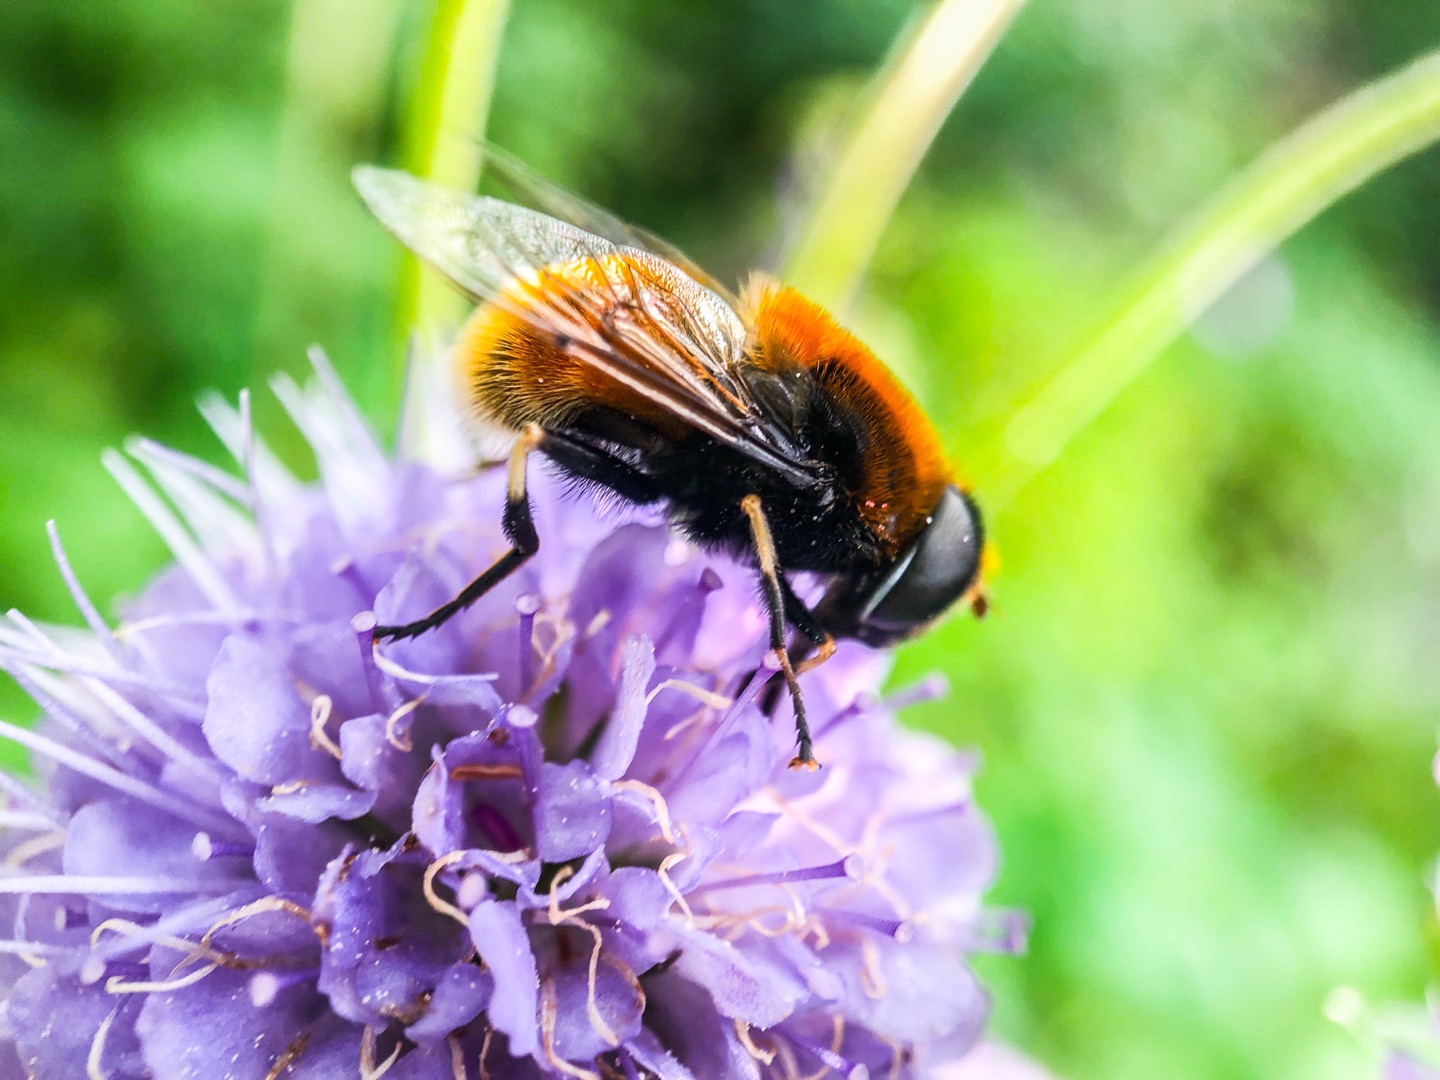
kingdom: Animalia
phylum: Arthropoda
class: Insecta
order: Diptera
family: Syrphidae
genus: Eristalis
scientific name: Eristalis intricaria
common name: Håret dyndflue
